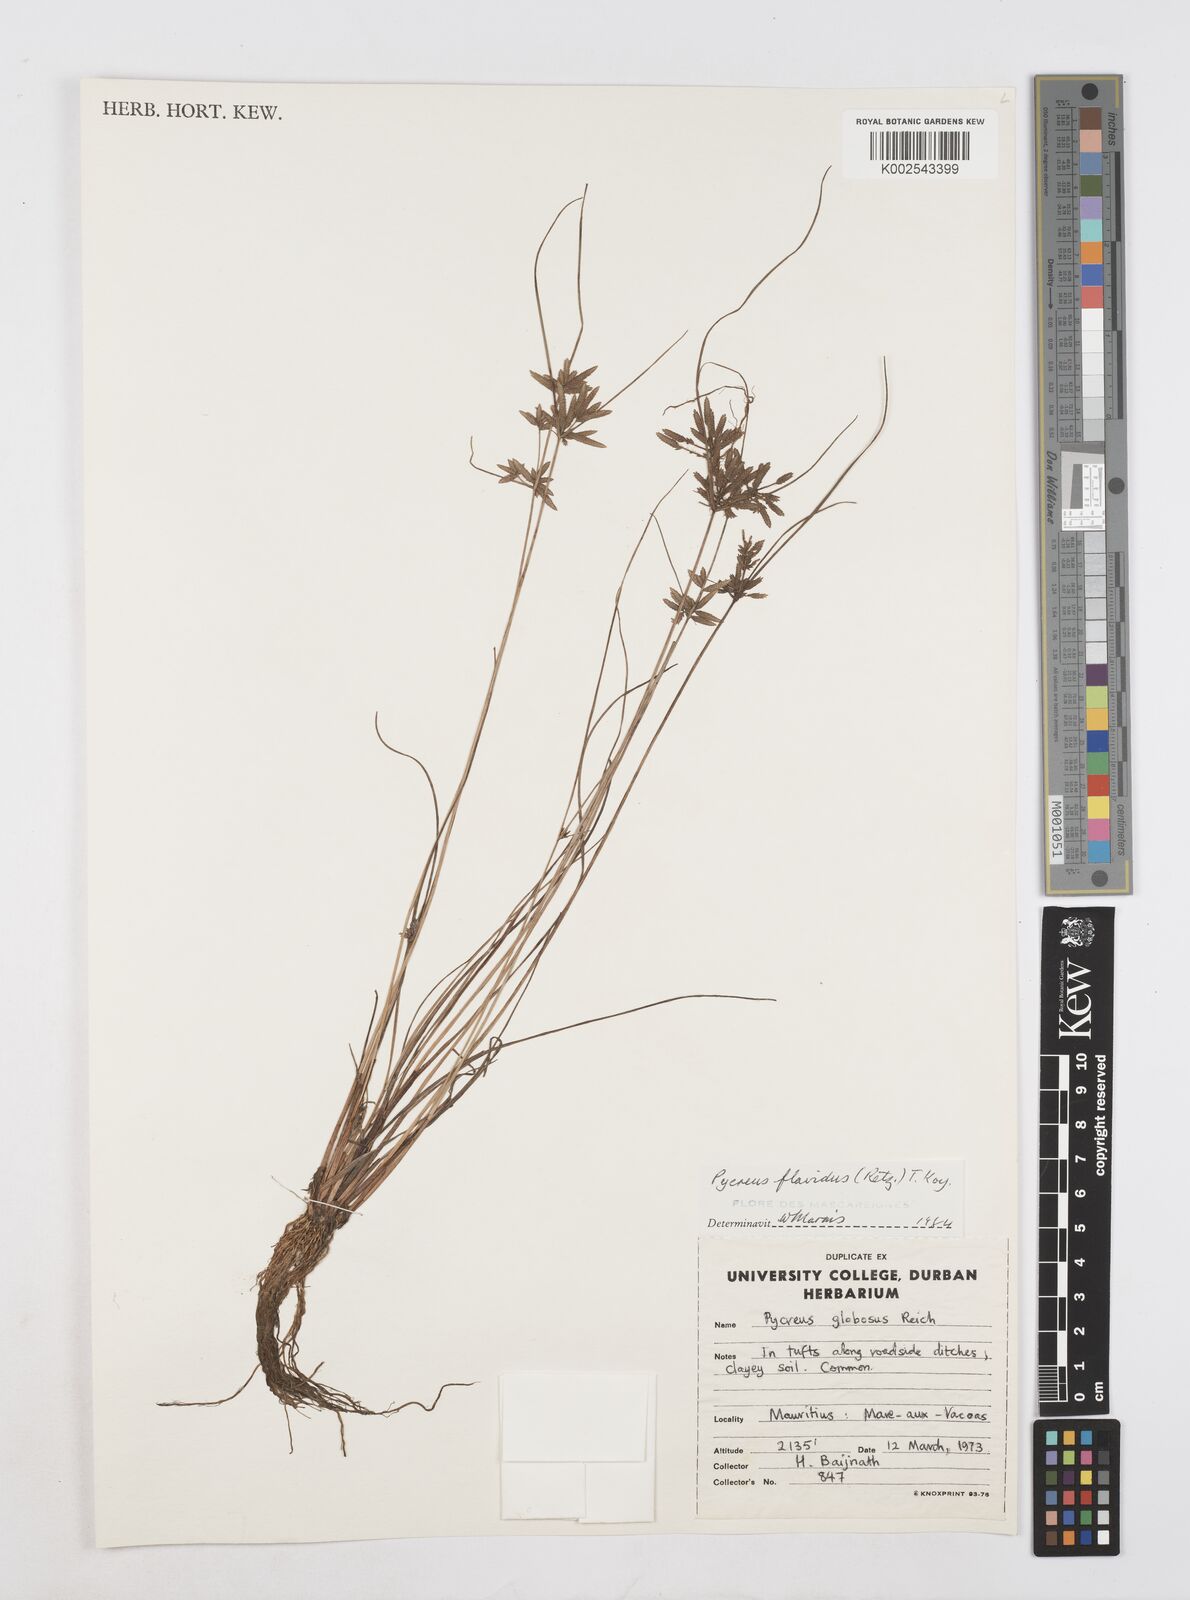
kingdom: Plantae
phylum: Tracheophyta
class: Liliopsida
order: Poales
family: Cyperaceae
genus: Cyperus
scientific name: Cyperus flavidus
